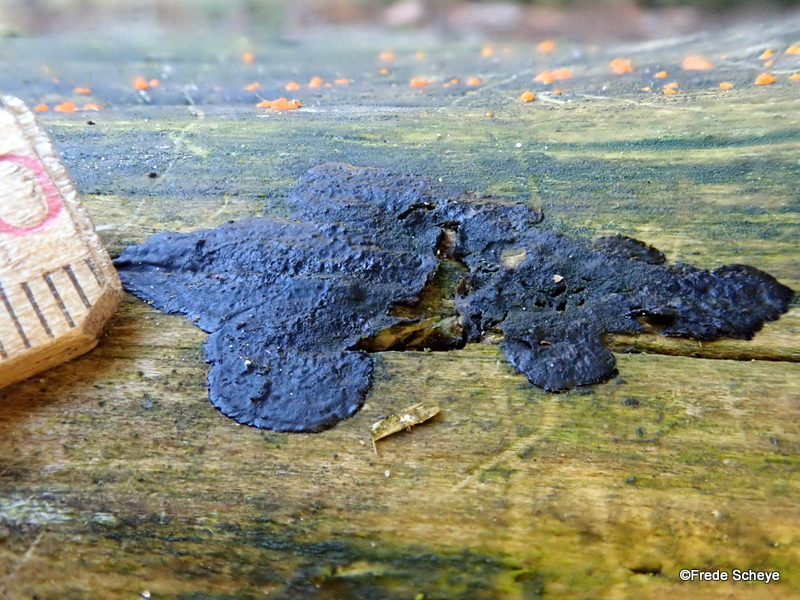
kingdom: Fungi
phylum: Basidiomycota
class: Agaricomycetes
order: Auriculariales
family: Auriculariaceae
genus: Exidia
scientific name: Exidia pithya
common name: gran-bævretop
